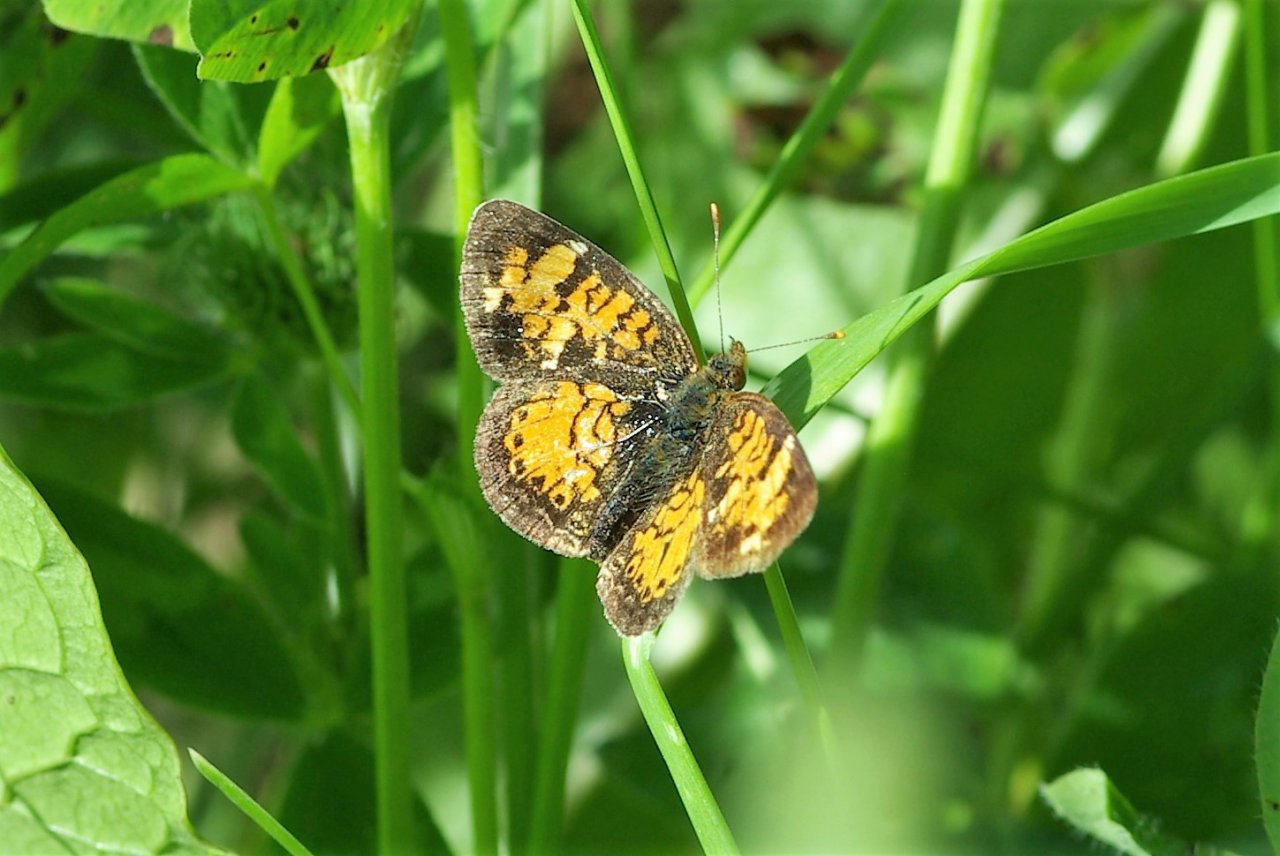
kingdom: Animalia
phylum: Arthropoda
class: Insecta
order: Lepidoptera
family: Nymphalidae
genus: Phyciodes
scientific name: Phyciodes tharos
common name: Northern Crescent
